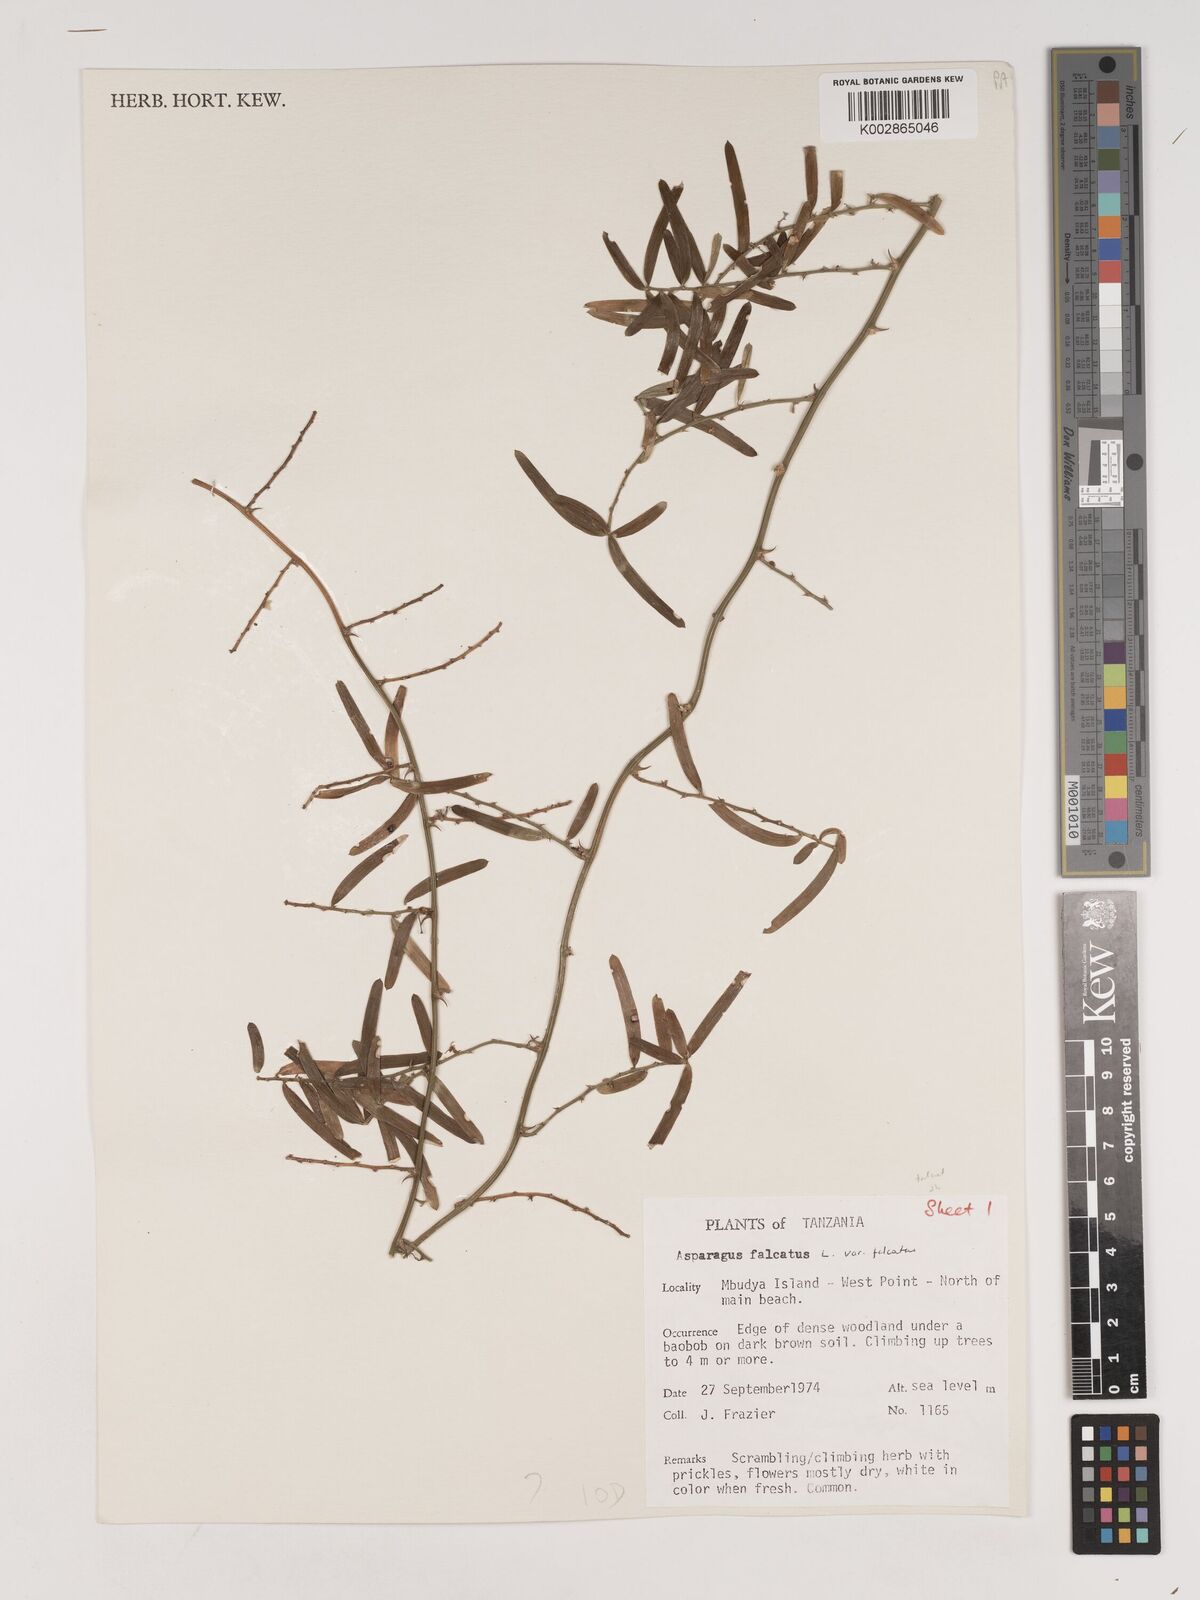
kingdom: Plantae
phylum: Tracheophyta
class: Liliopsida
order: Asparagales
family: Asparagaceae
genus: Asparagus
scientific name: Asparagus falcatus
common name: Asparagus
